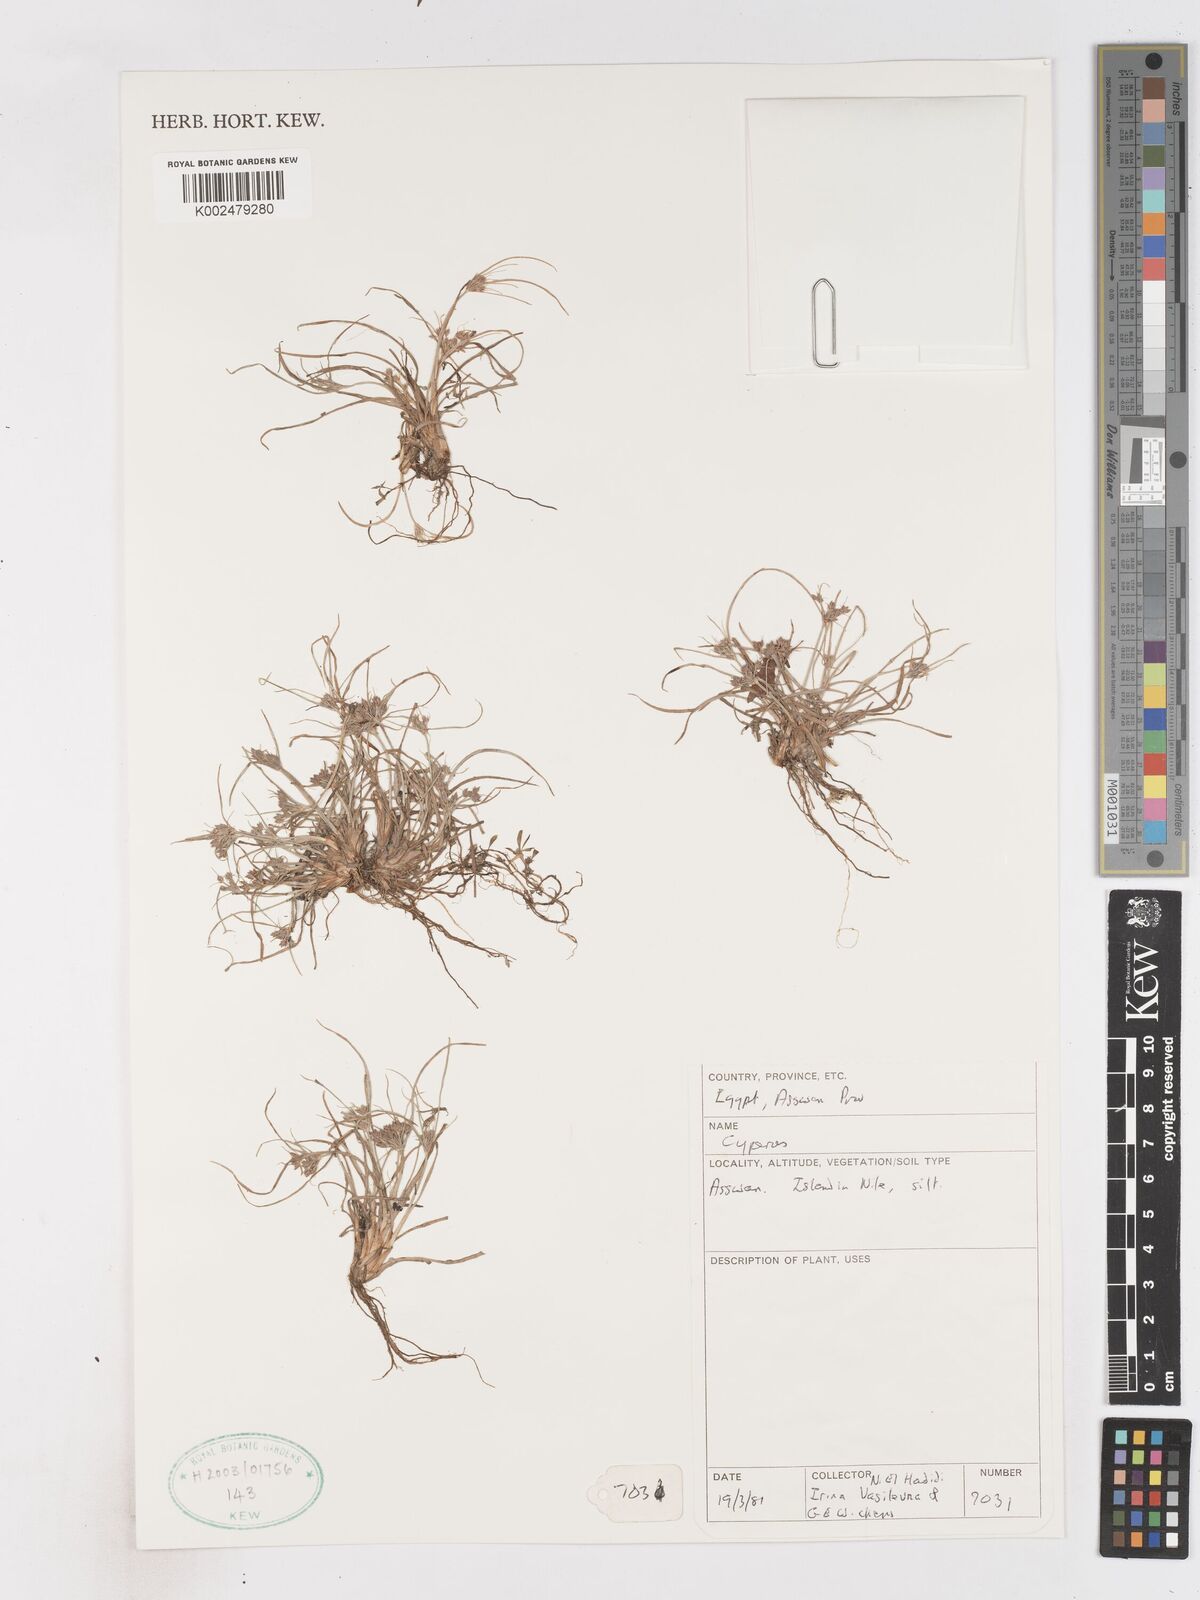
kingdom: Plantae
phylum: Tracheophyta
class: Liliopsida
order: Poales
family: Cyperaceae
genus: Cyperus
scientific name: Cyperus
